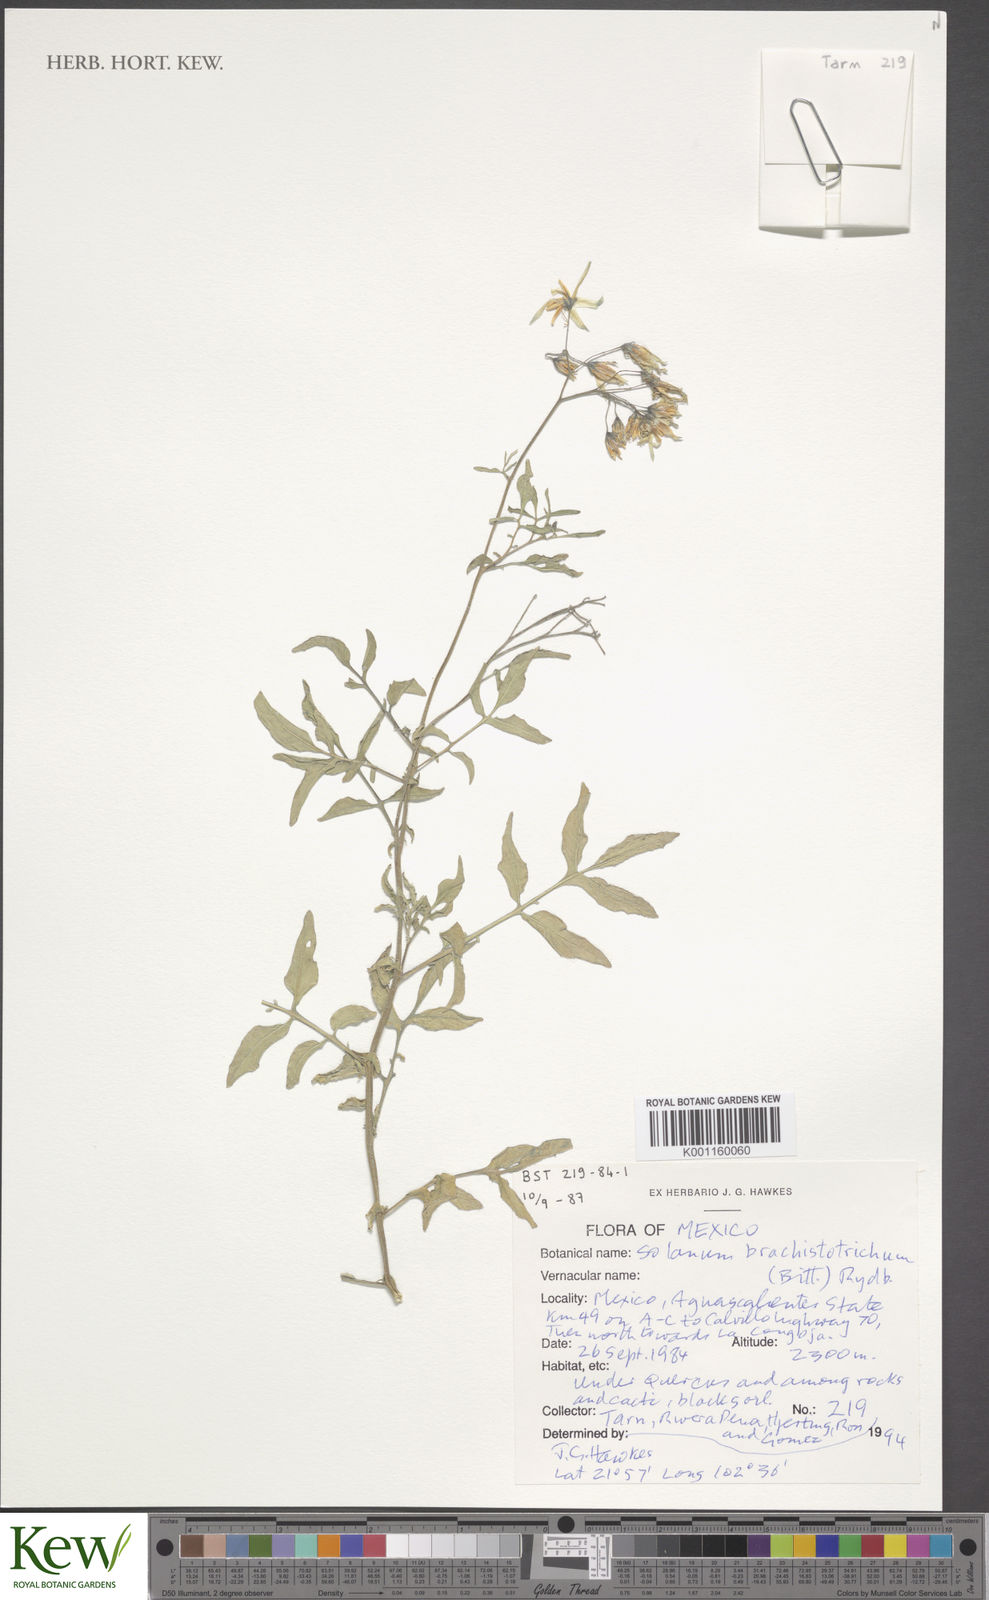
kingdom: Plantae
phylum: Tracheophyta
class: Magnoliopsida
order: Solanales
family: Solanaceae
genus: Solanum
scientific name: Solanum
